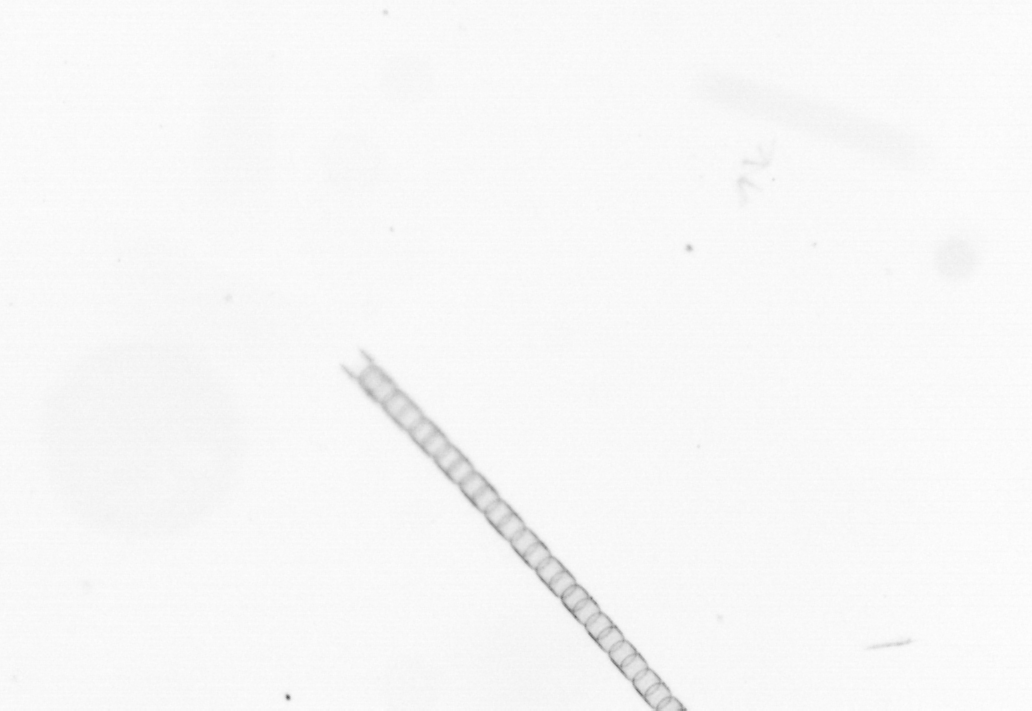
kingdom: Chromista
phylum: Ochrophyta
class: Bacillariophyceae
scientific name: Bacillariophyceae
